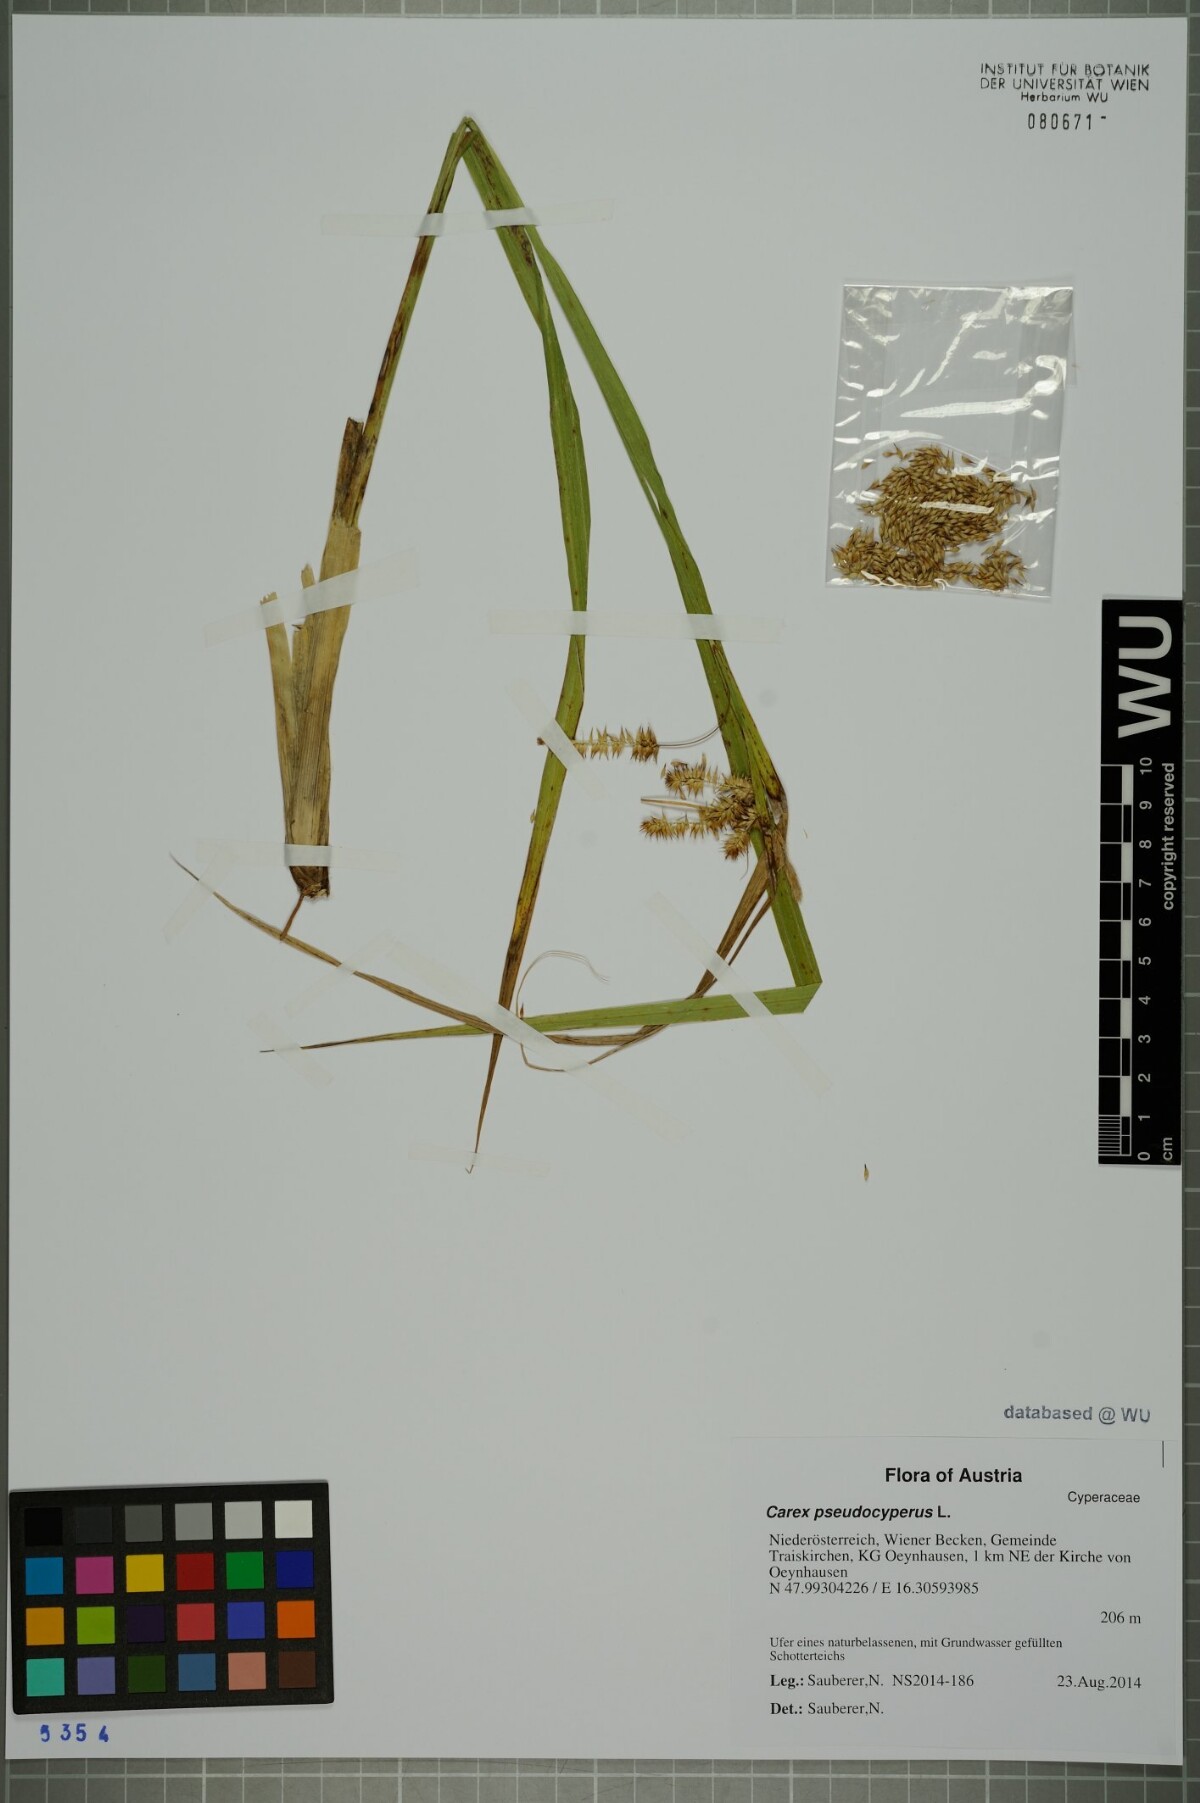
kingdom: Plantae
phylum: Tracheophyta
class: Liliopsida
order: Poales
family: Cyperaceae
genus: Carex
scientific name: Carex pseudocyperus
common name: Cyperus sedge
